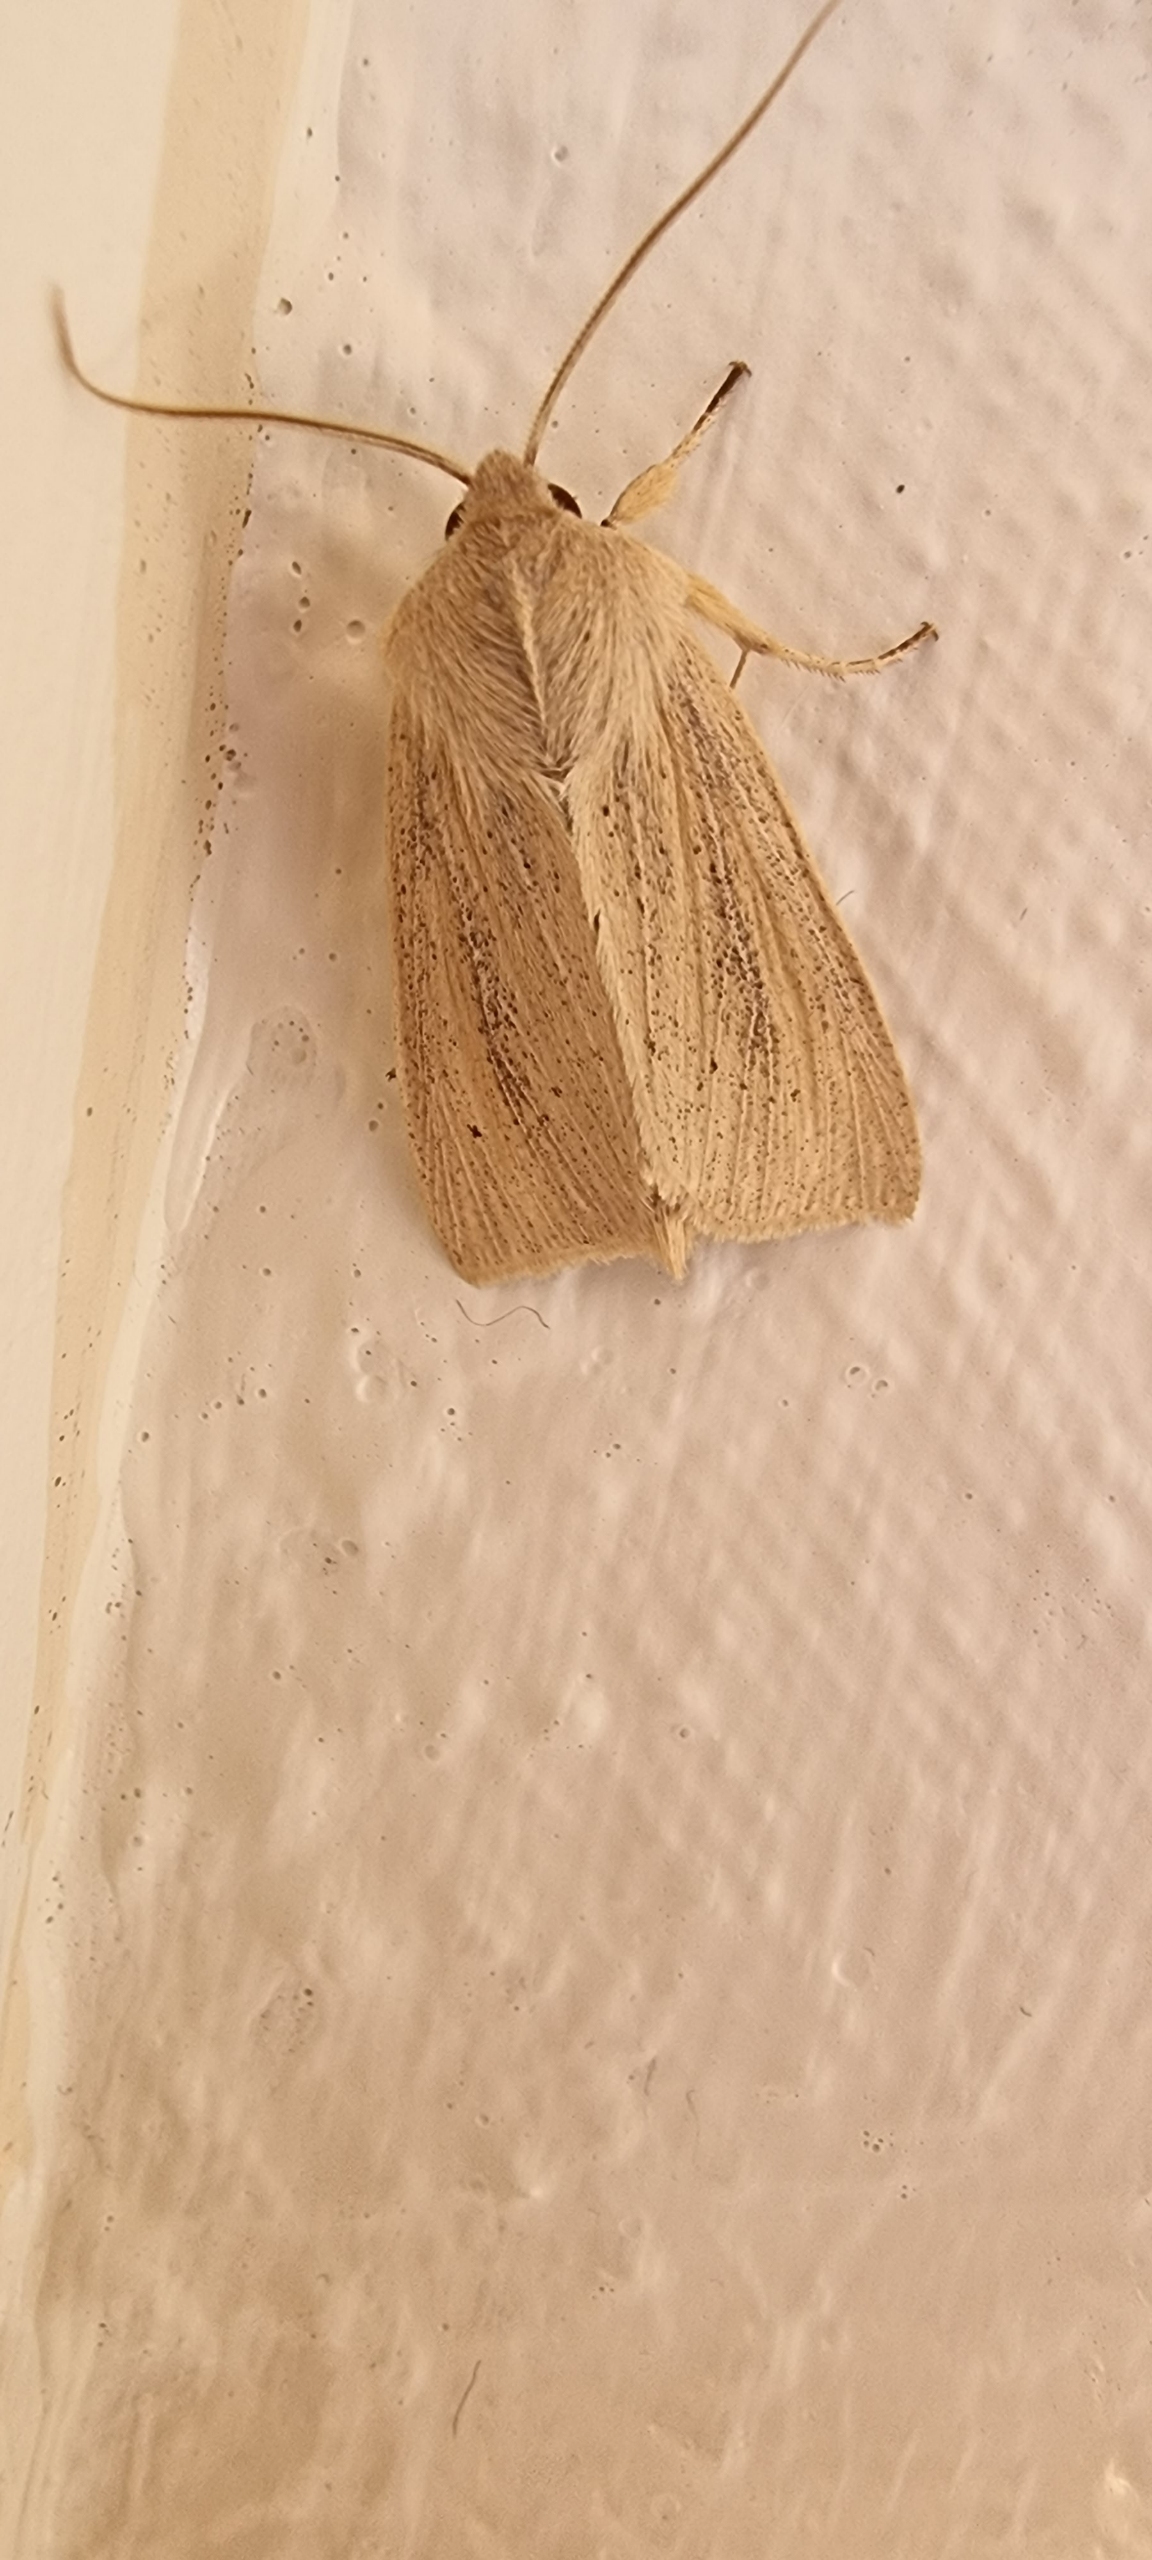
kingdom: Animalia
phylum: Arthropoda
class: Insecta
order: Lepidoptera
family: Noctuidae
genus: Rhizedra
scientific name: Rhizedra lutosa
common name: Stor sivugle
